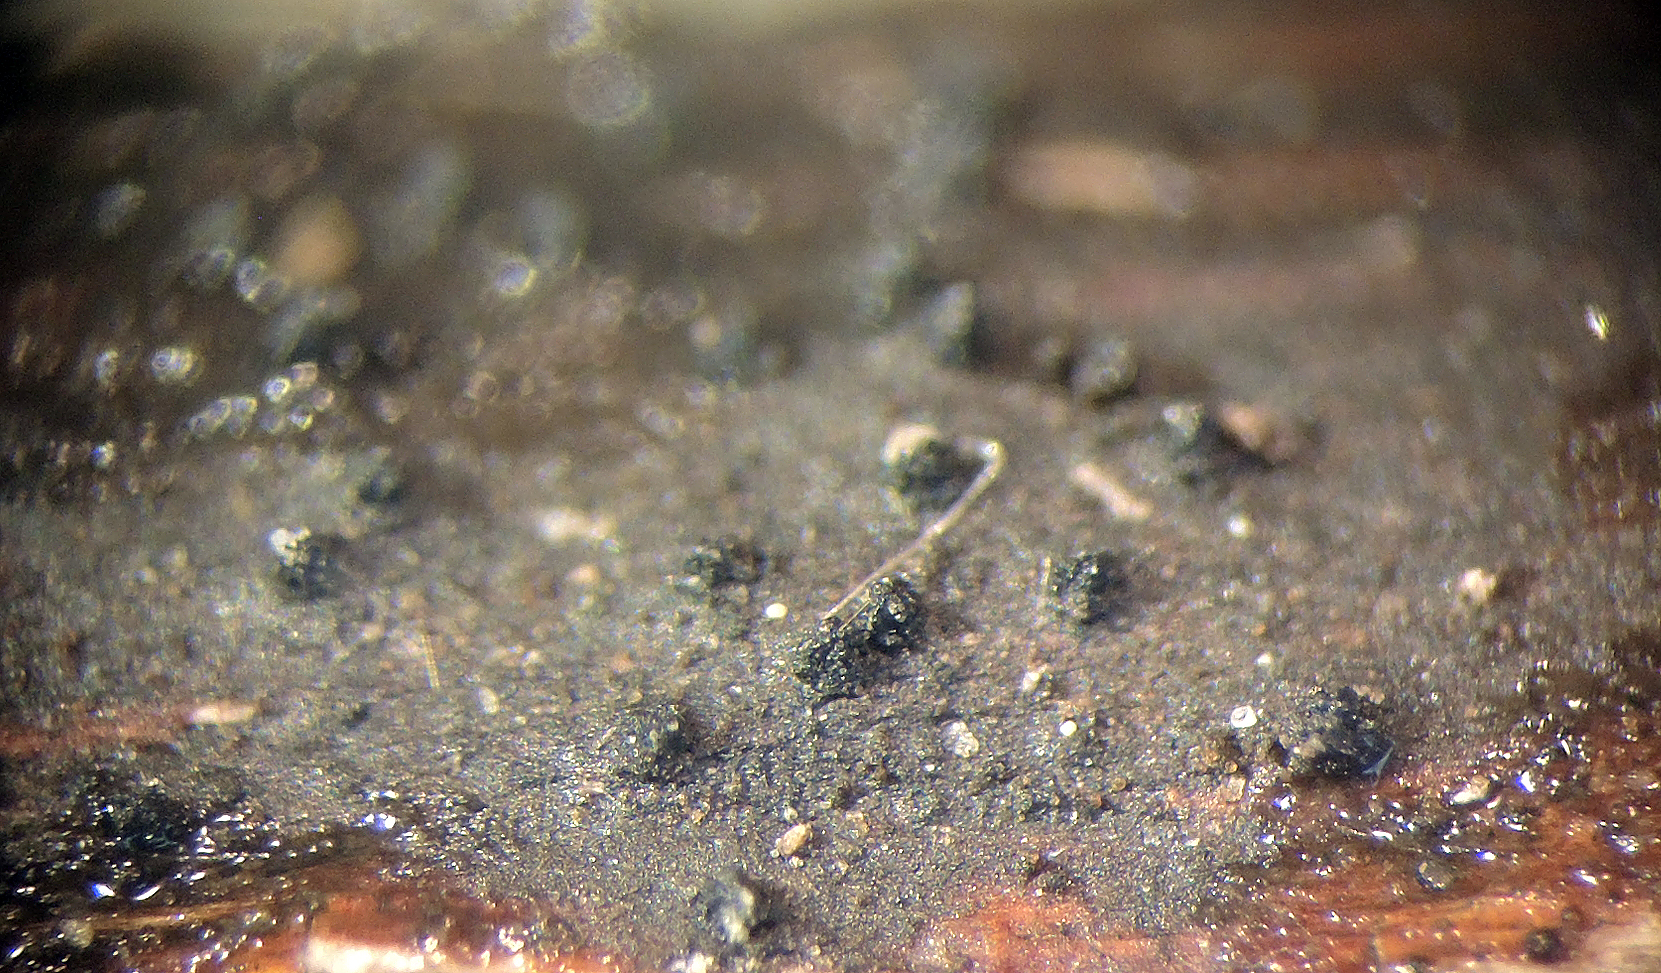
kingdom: Fungi
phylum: Ascomycota
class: Sordariomycetes
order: Xylariales
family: Diatrypaceae
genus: Eutypella
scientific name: Eutypella
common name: kulskorpe
